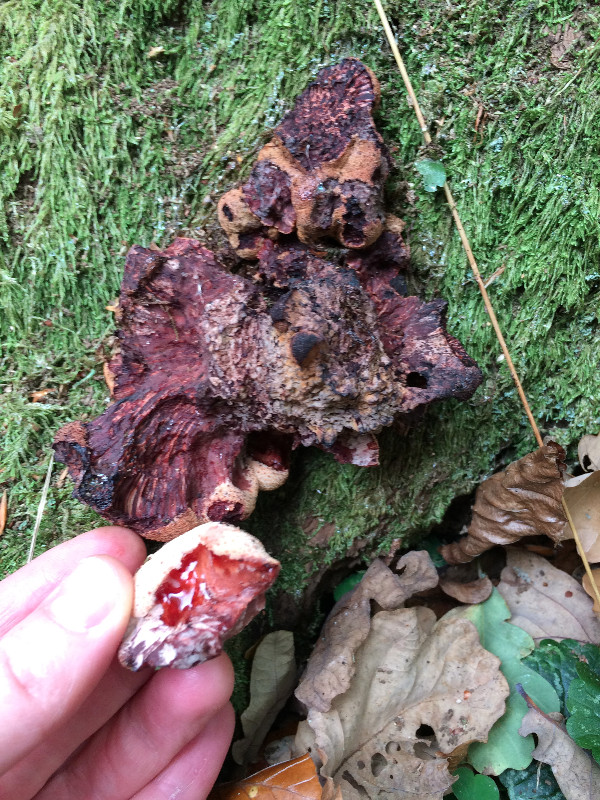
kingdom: Fungi
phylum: Basidiomycota
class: Agaricomycetes
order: Agaricales
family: Fistulinaceae
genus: Fistulina
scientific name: Fistulina hepatica
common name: oksetunge
